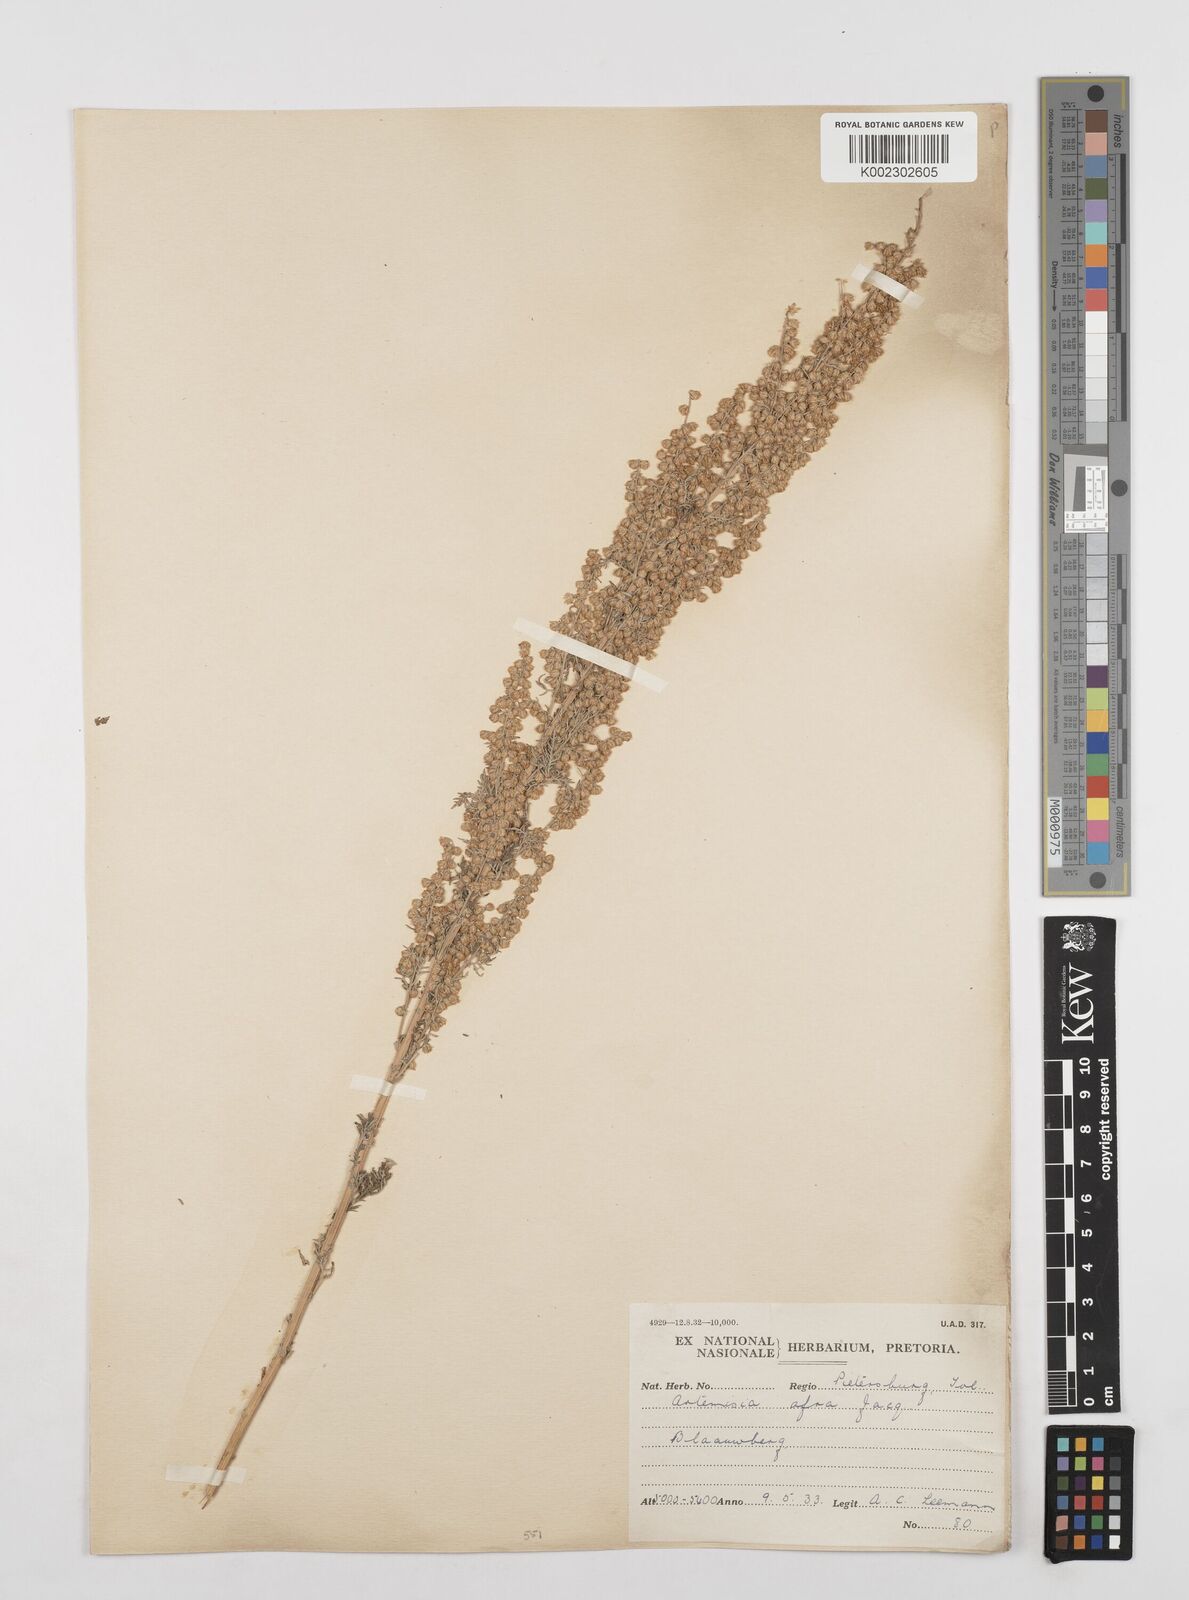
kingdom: Plantae
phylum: Tracheophyta
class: Magnoliopsida
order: Asterales
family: Asteraceae
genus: Artemisia
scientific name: Artemisia afra
